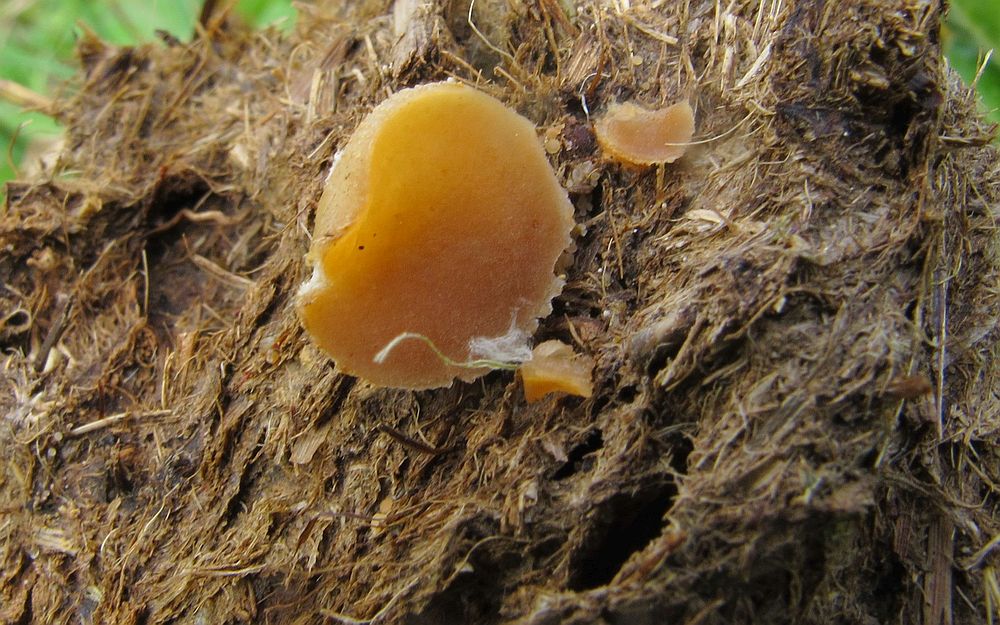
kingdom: Fungi
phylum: Ascomycota
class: Pezizomycetes
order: Pezizales
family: Pezizaceae
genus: Peziza
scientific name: Peziza fimeti
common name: møg-bægersvamp
